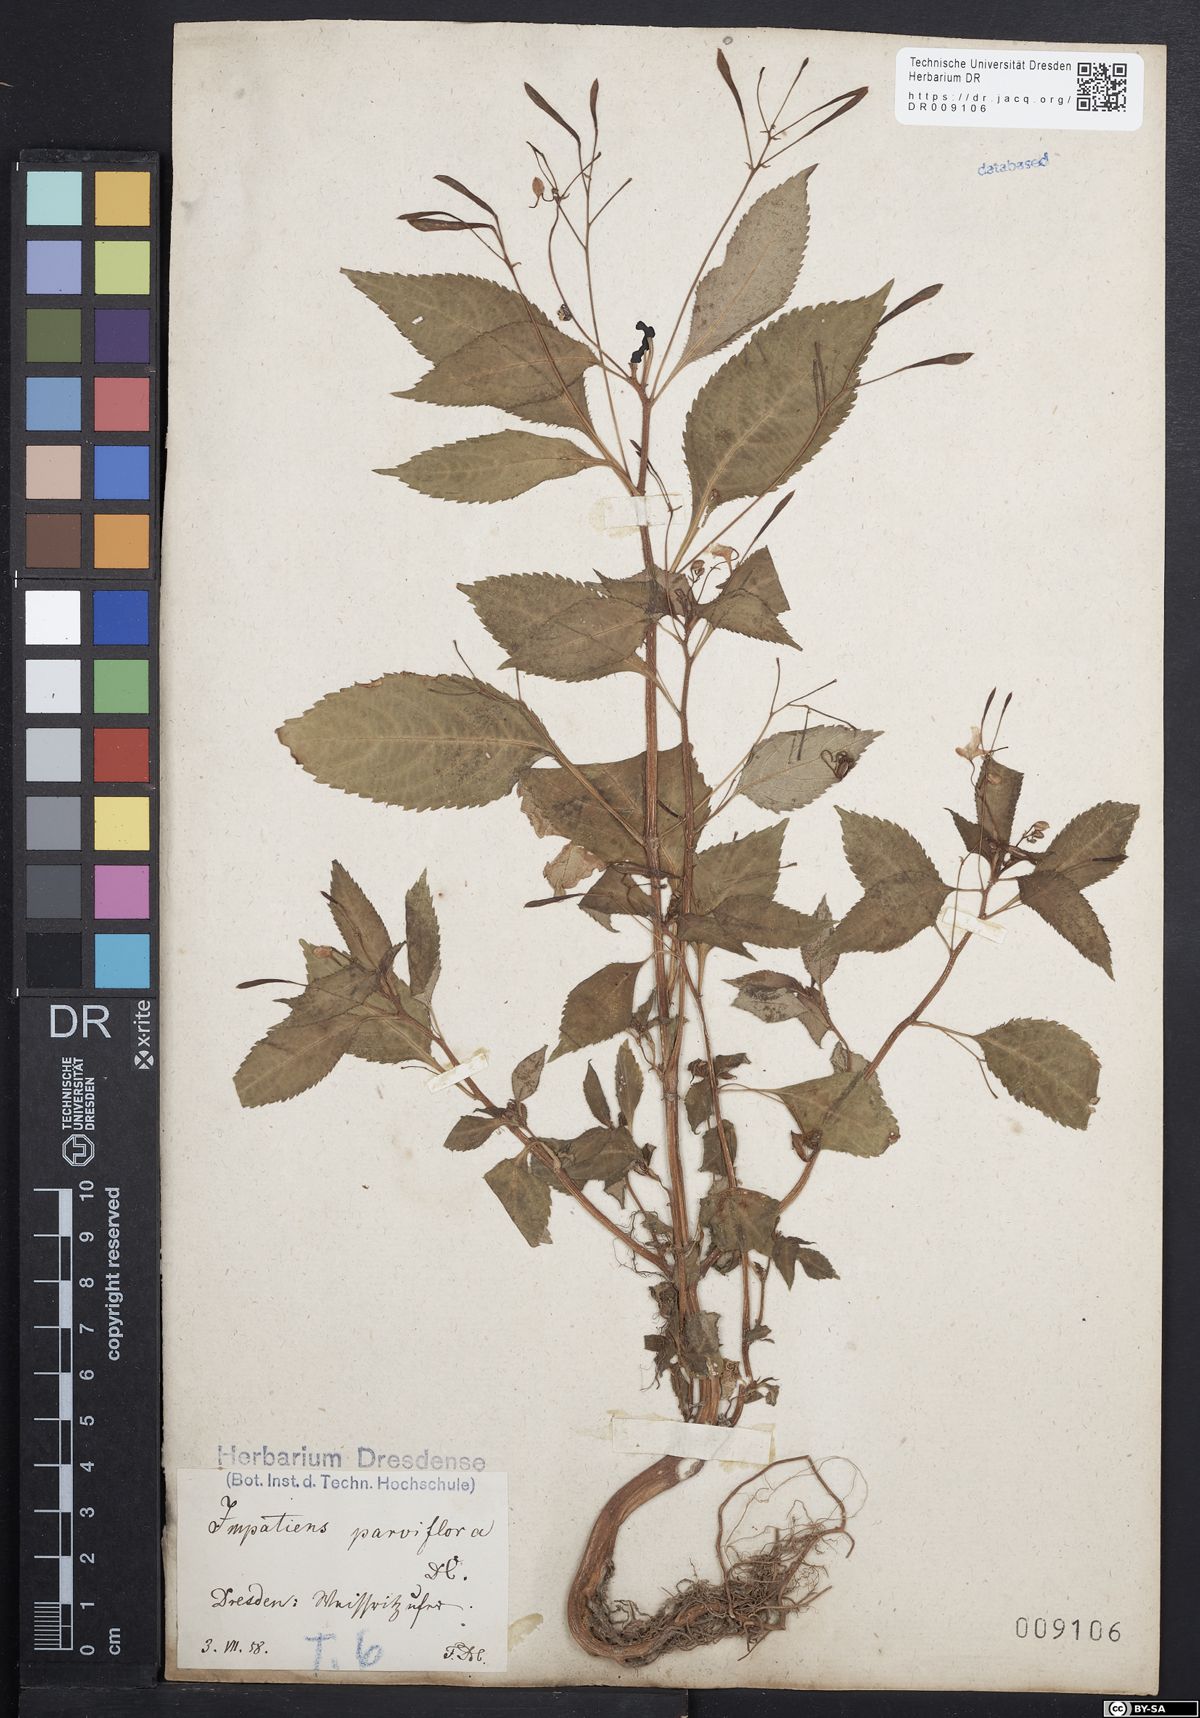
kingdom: Plantae
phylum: Tracheophyta
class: Magnoliopsida
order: Ericales
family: Balsaminaceae
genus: Impatiens
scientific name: Impatiens parviflora
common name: Small balsam
